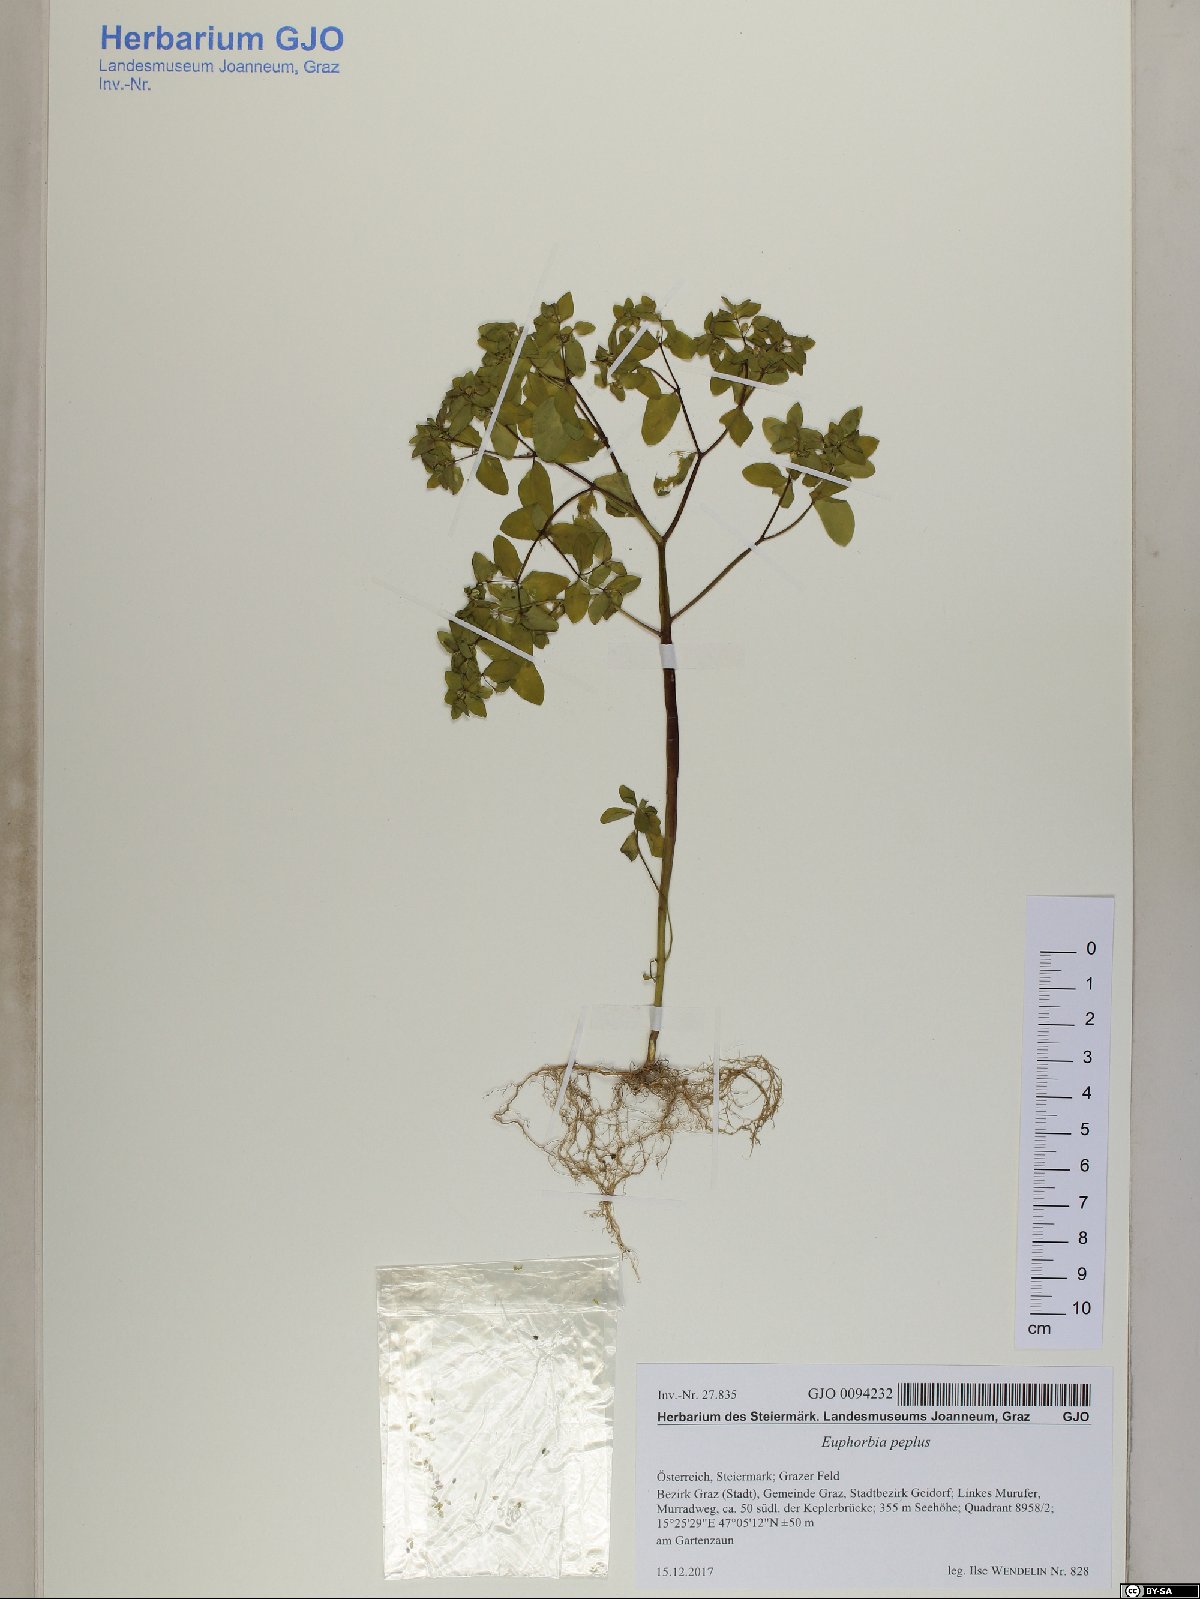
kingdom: Plantae
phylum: Tracheophyta
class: Magnoliopsida
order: Malpighiales
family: Euphorbiaceae
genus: Euphorbia
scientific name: Euphorbia peplus
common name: Petty spurge
